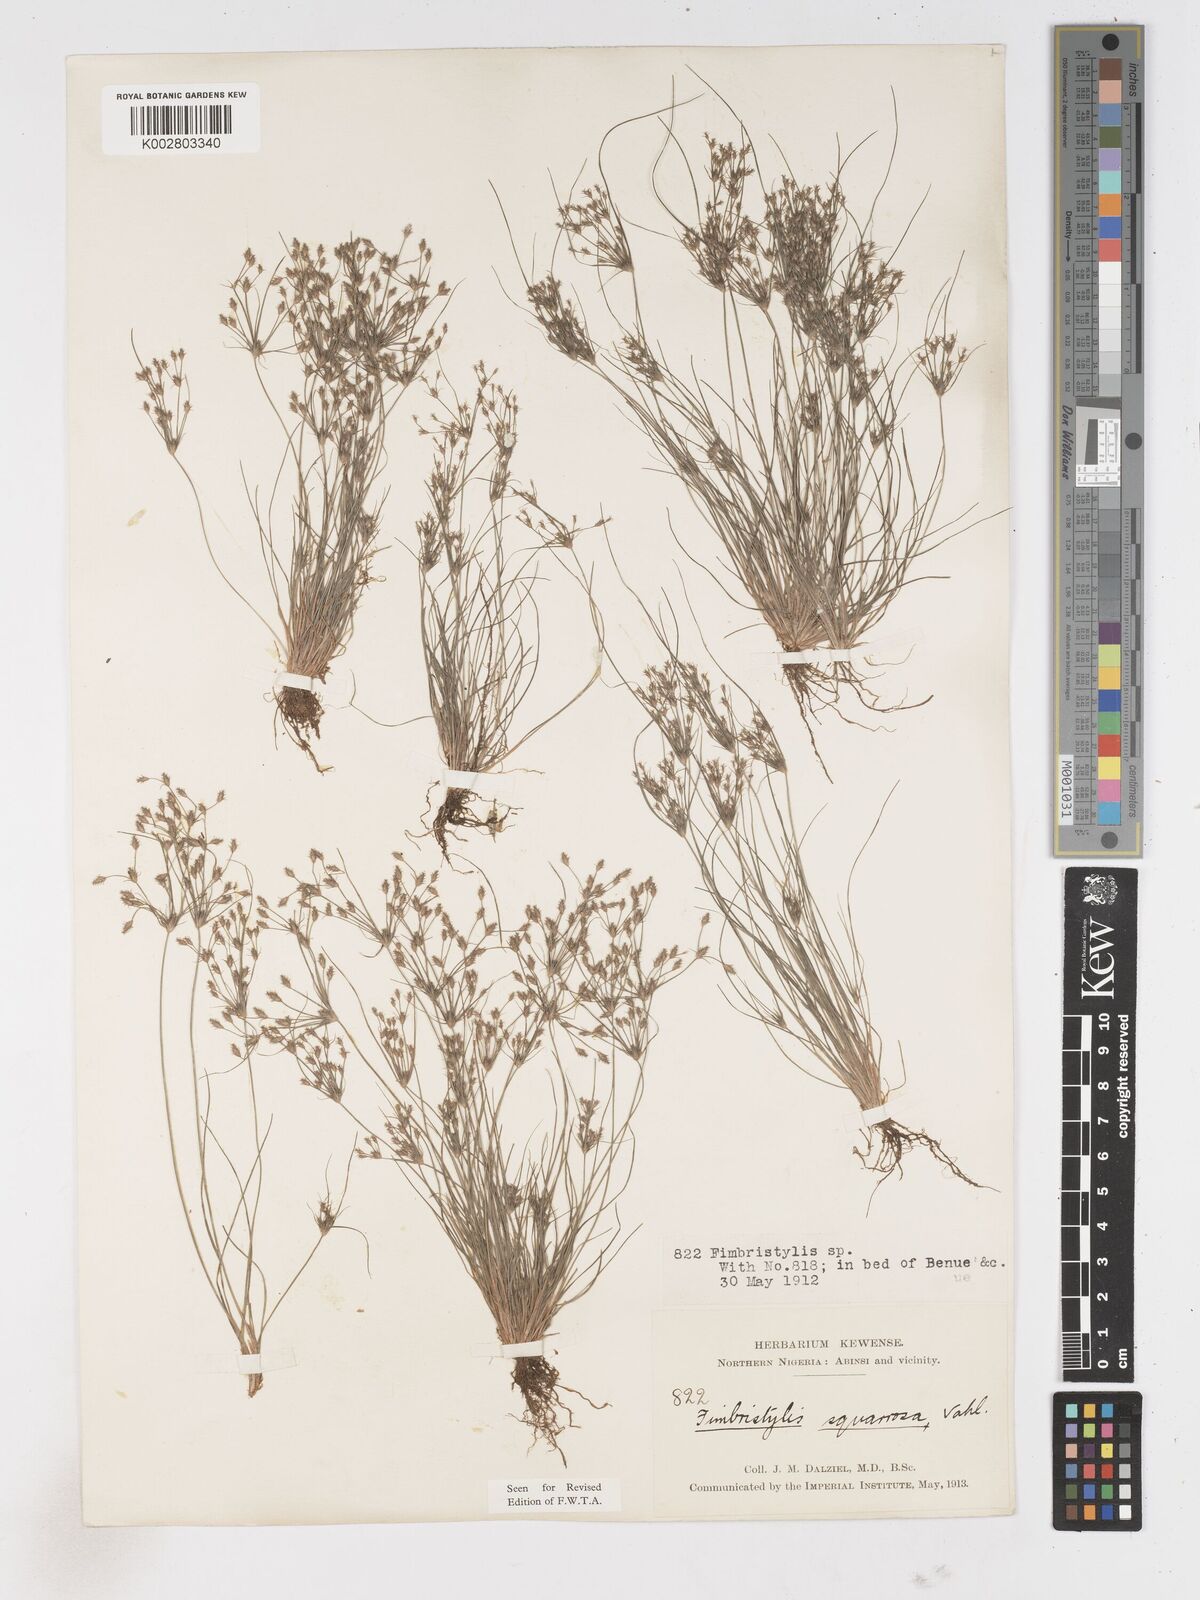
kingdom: Plantae
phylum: Tracheophyta
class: Liliopsida
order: Poales
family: Cyperaceae
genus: Fimbristylis
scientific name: Fimbristylis squarrosa
